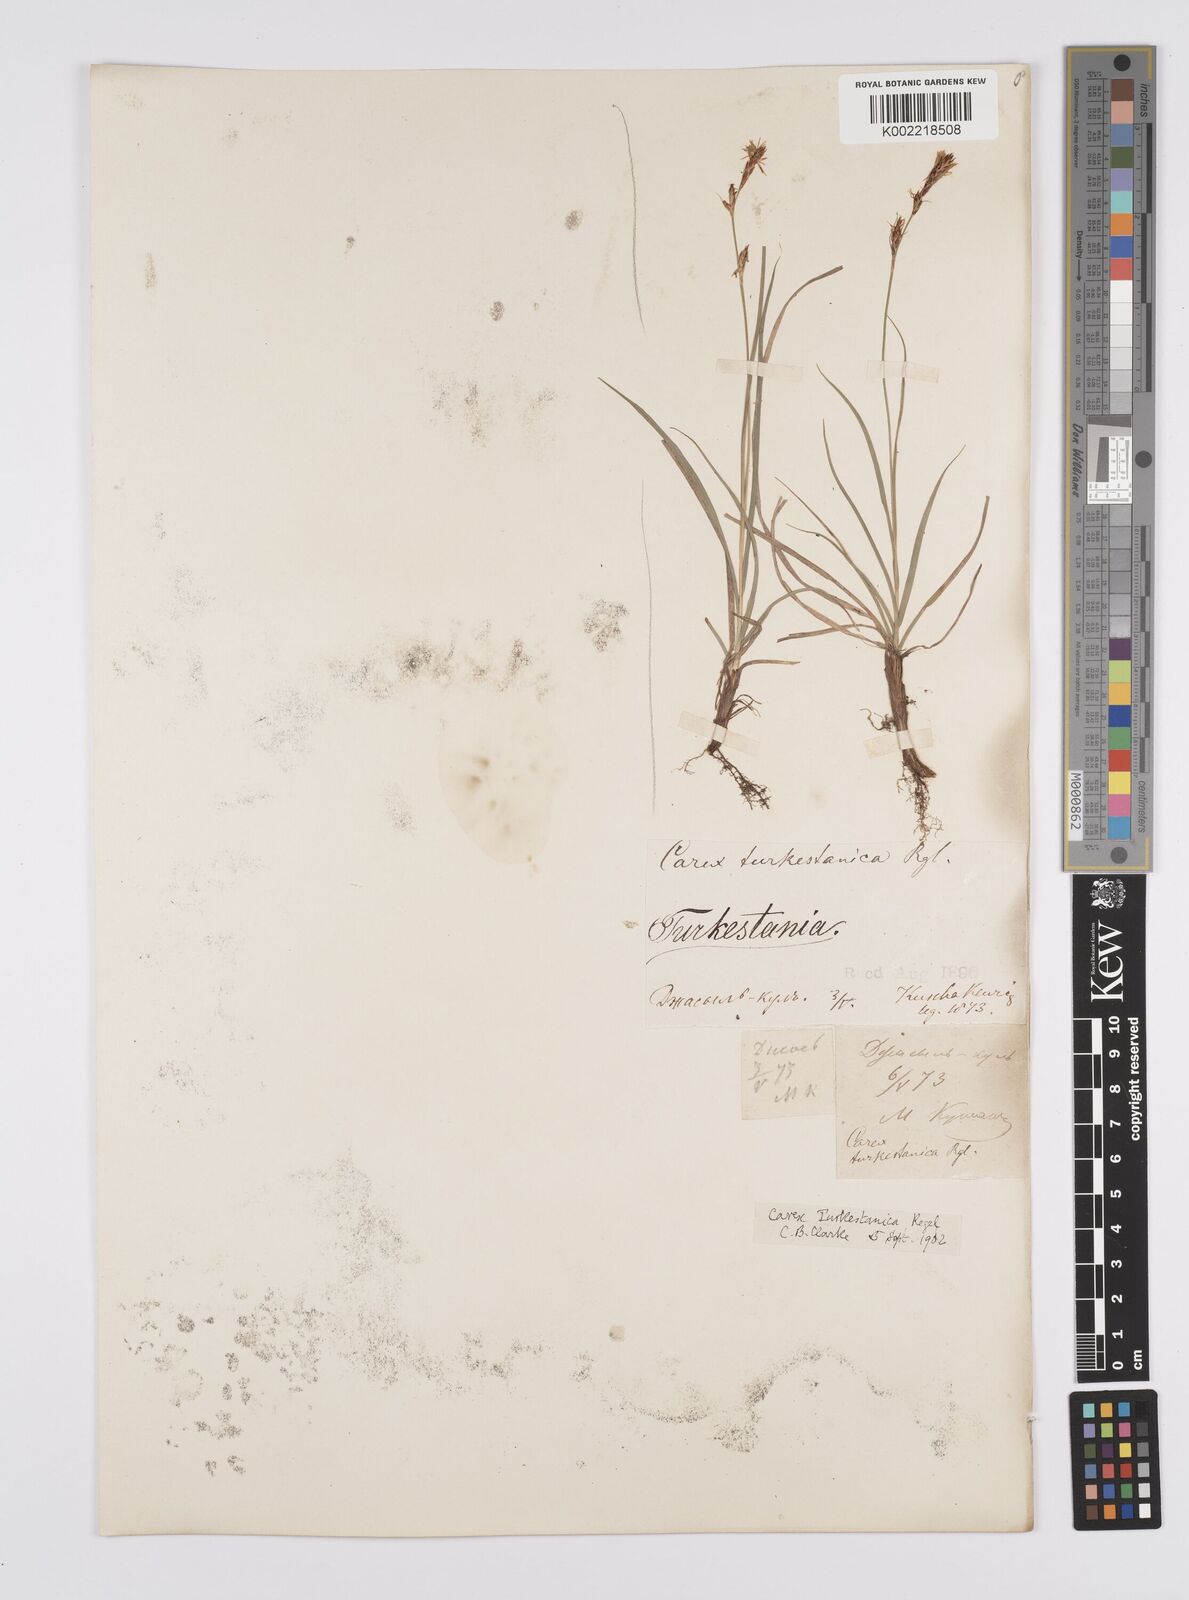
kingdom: Plantae
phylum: Tracheophyta
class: Liliopsida
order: Poales
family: Cyperaceae
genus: Carex
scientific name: Carex liparocarpos
